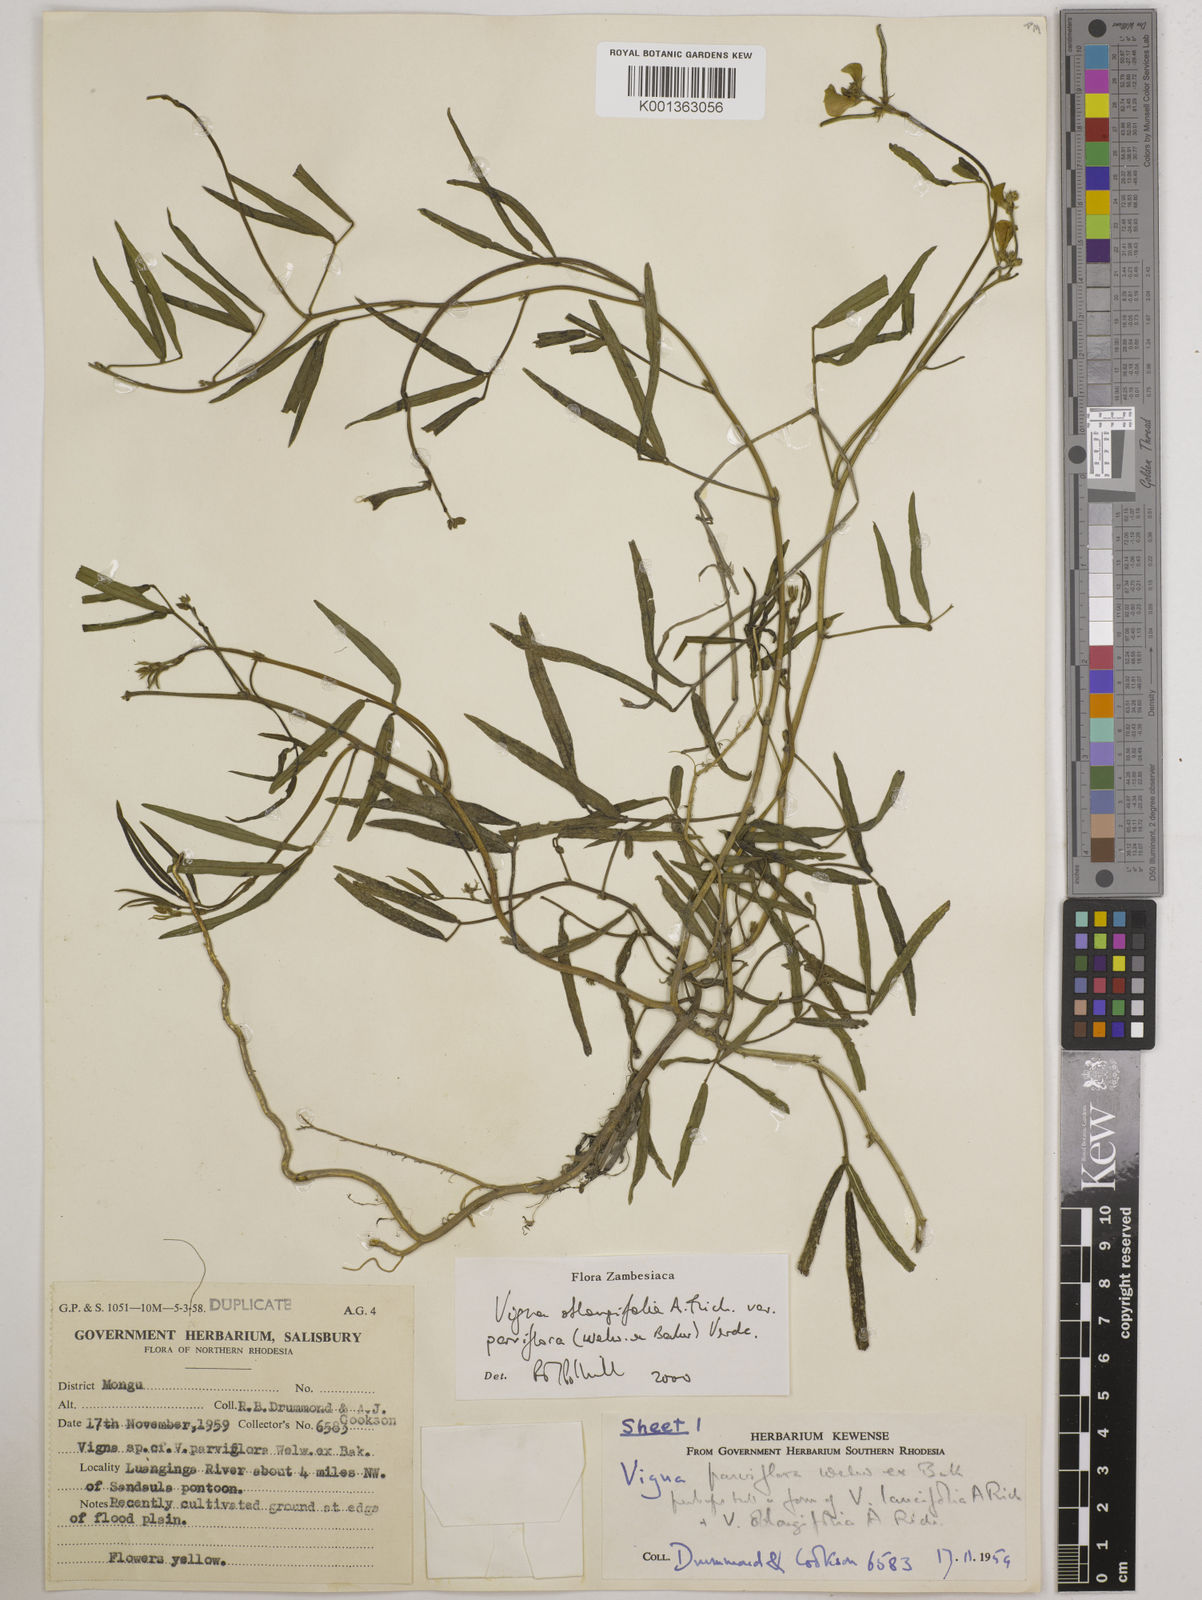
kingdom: Plantae
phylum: Tracheophyta
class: Magnoliopsida
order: Fabales
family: Fabaceae
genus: Vigna
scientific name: Vigna
